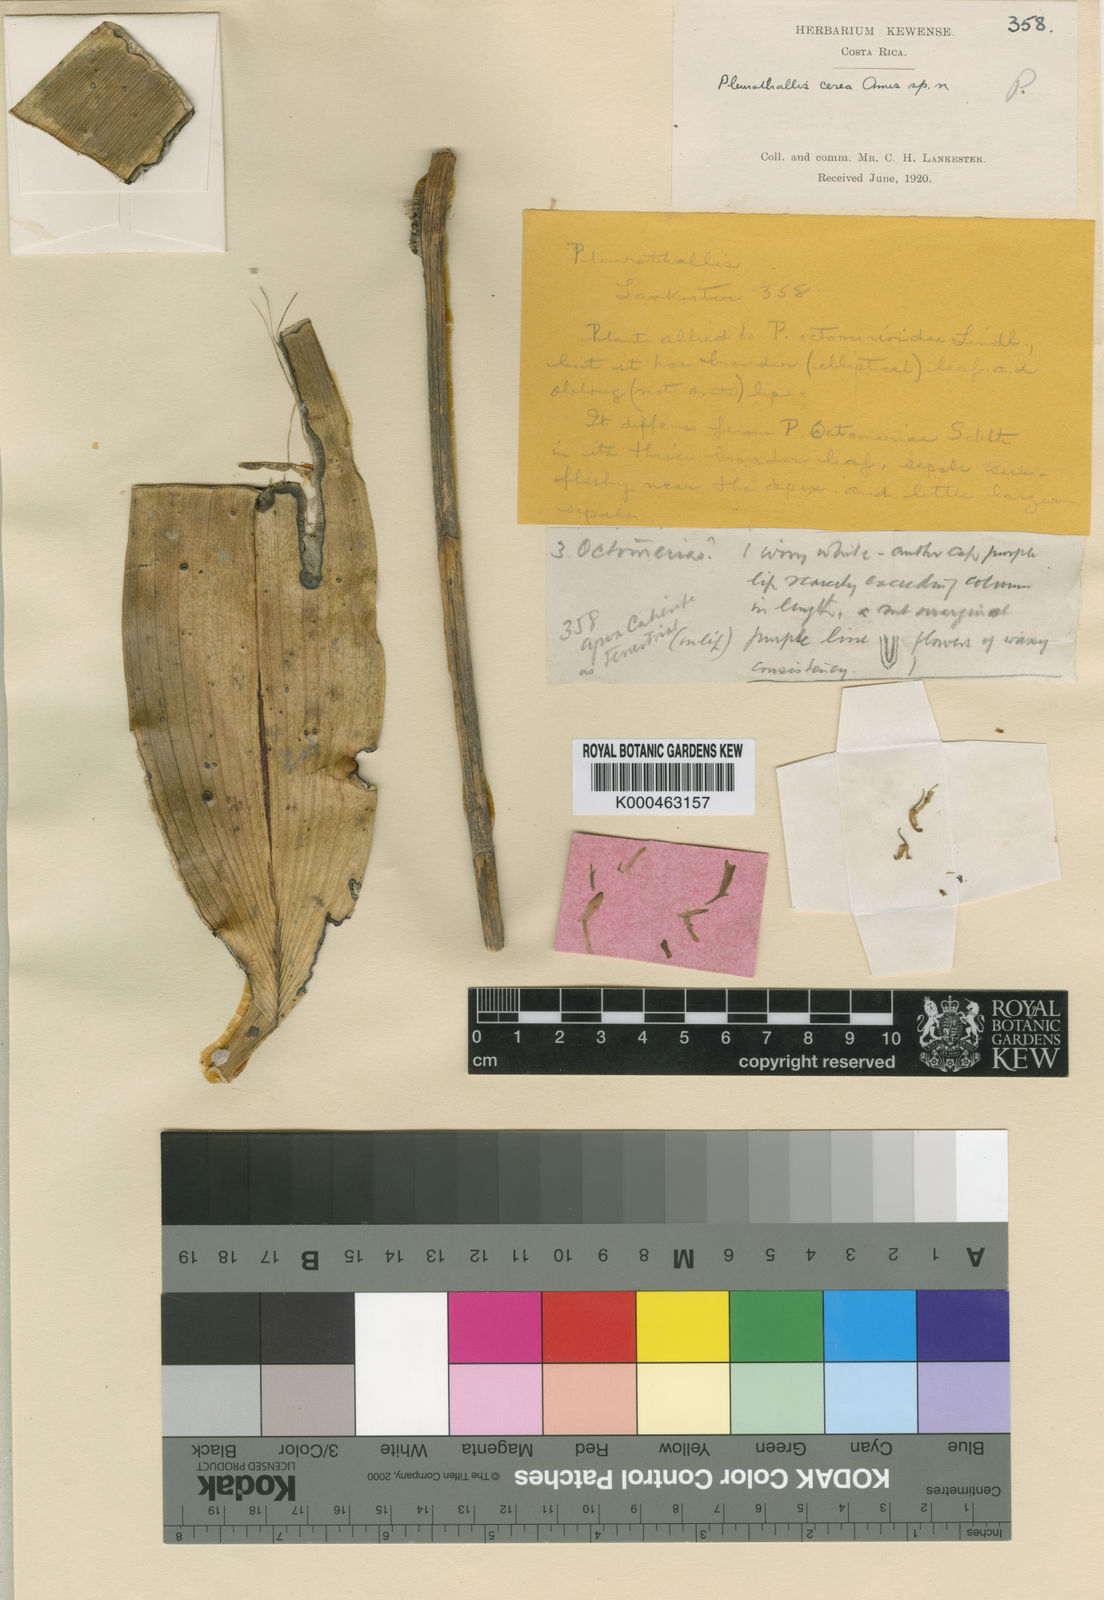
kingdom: Plantae
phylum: Tracheophyta
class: Liliopsida
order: Asparagales
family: Orchidaceae
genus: Myoxanthus
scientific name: Myoxanthus congestus
